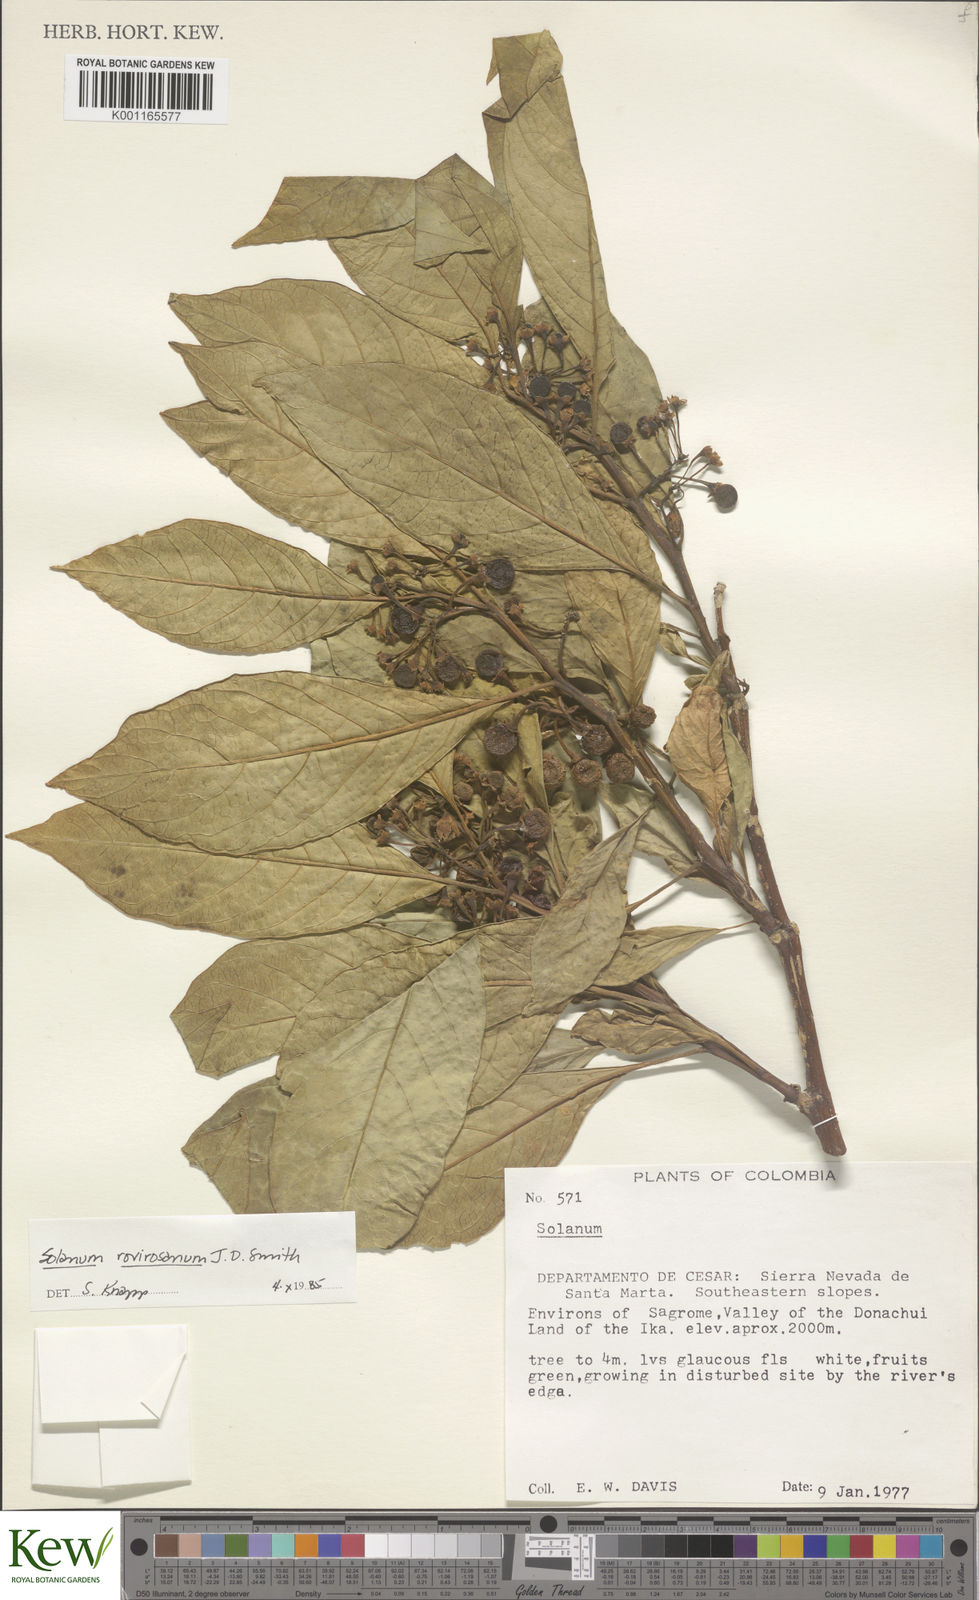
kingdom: Plantae
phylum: Tracheophyta
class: Magnoliopsida
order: Solanales
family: Solanaceae
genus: Solanum
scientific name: Solanum rovirosanum
